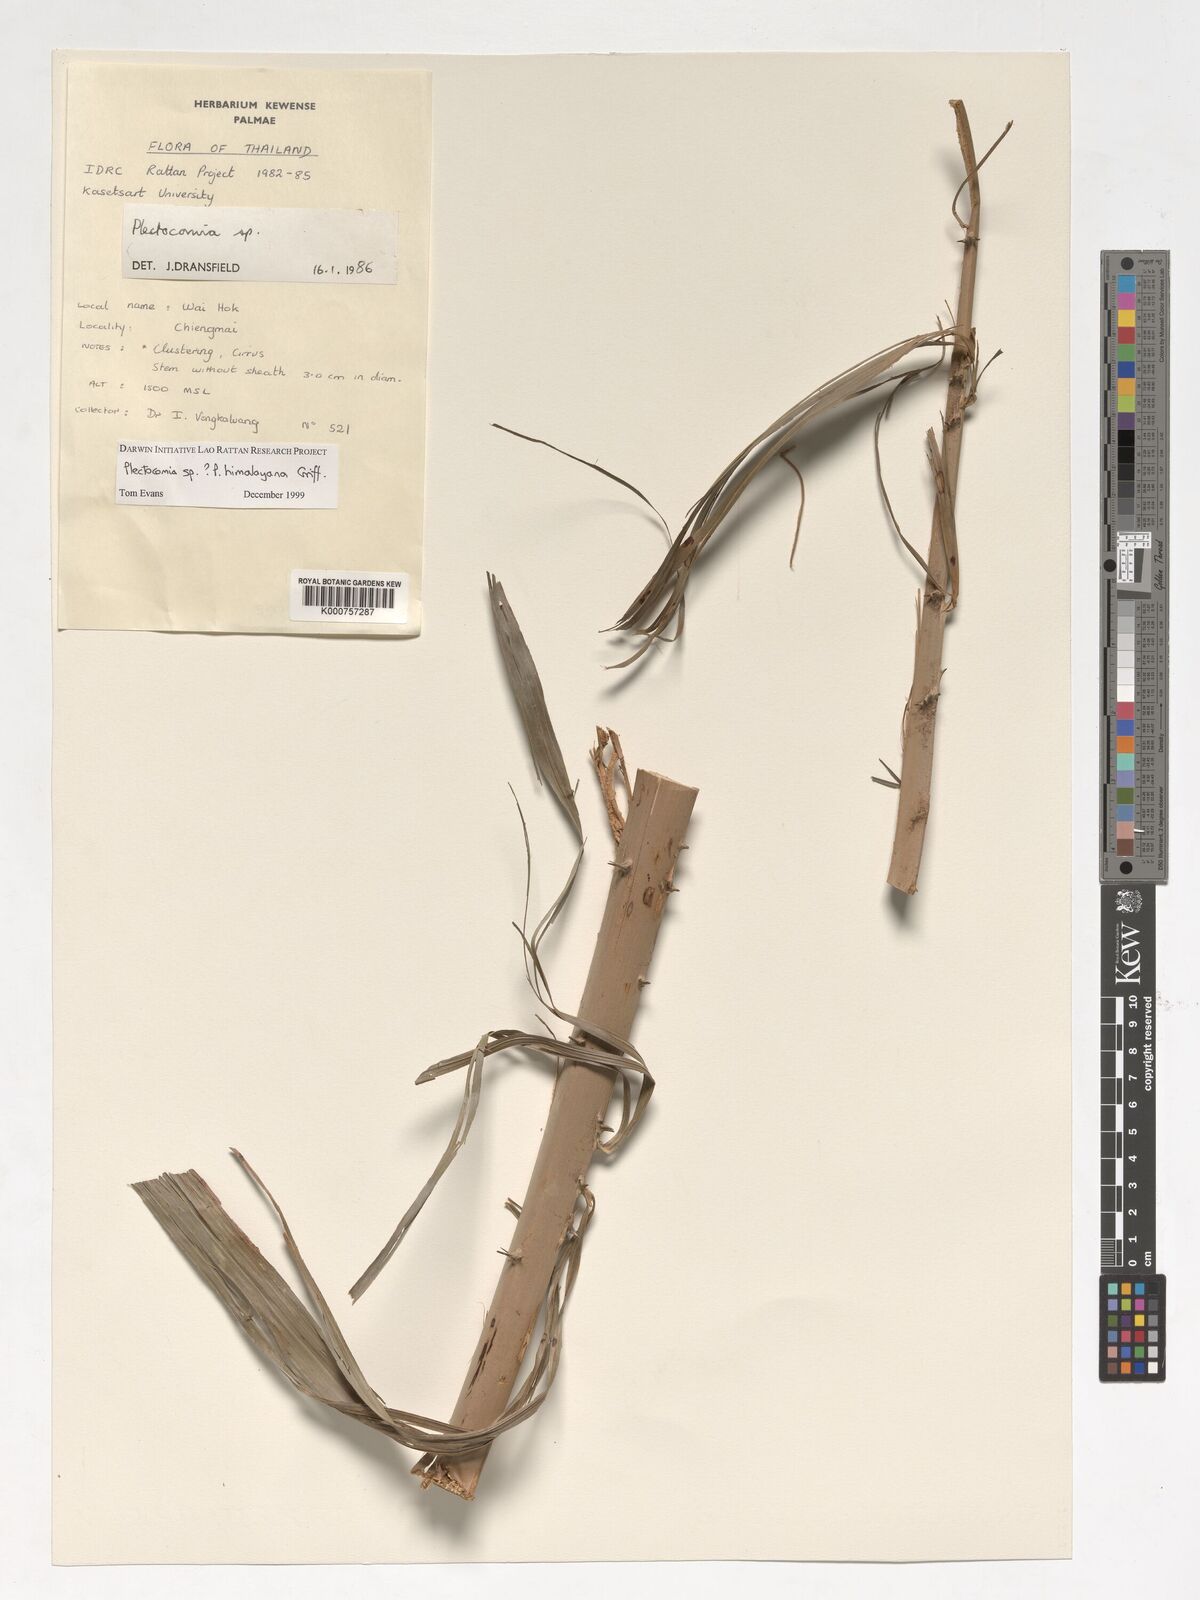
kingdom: Plantae
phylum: Tracheophyta
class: Liliopsida
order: Arecales
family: Arecaceae
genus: Plectocomia
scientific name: Plectocomia himalayana
